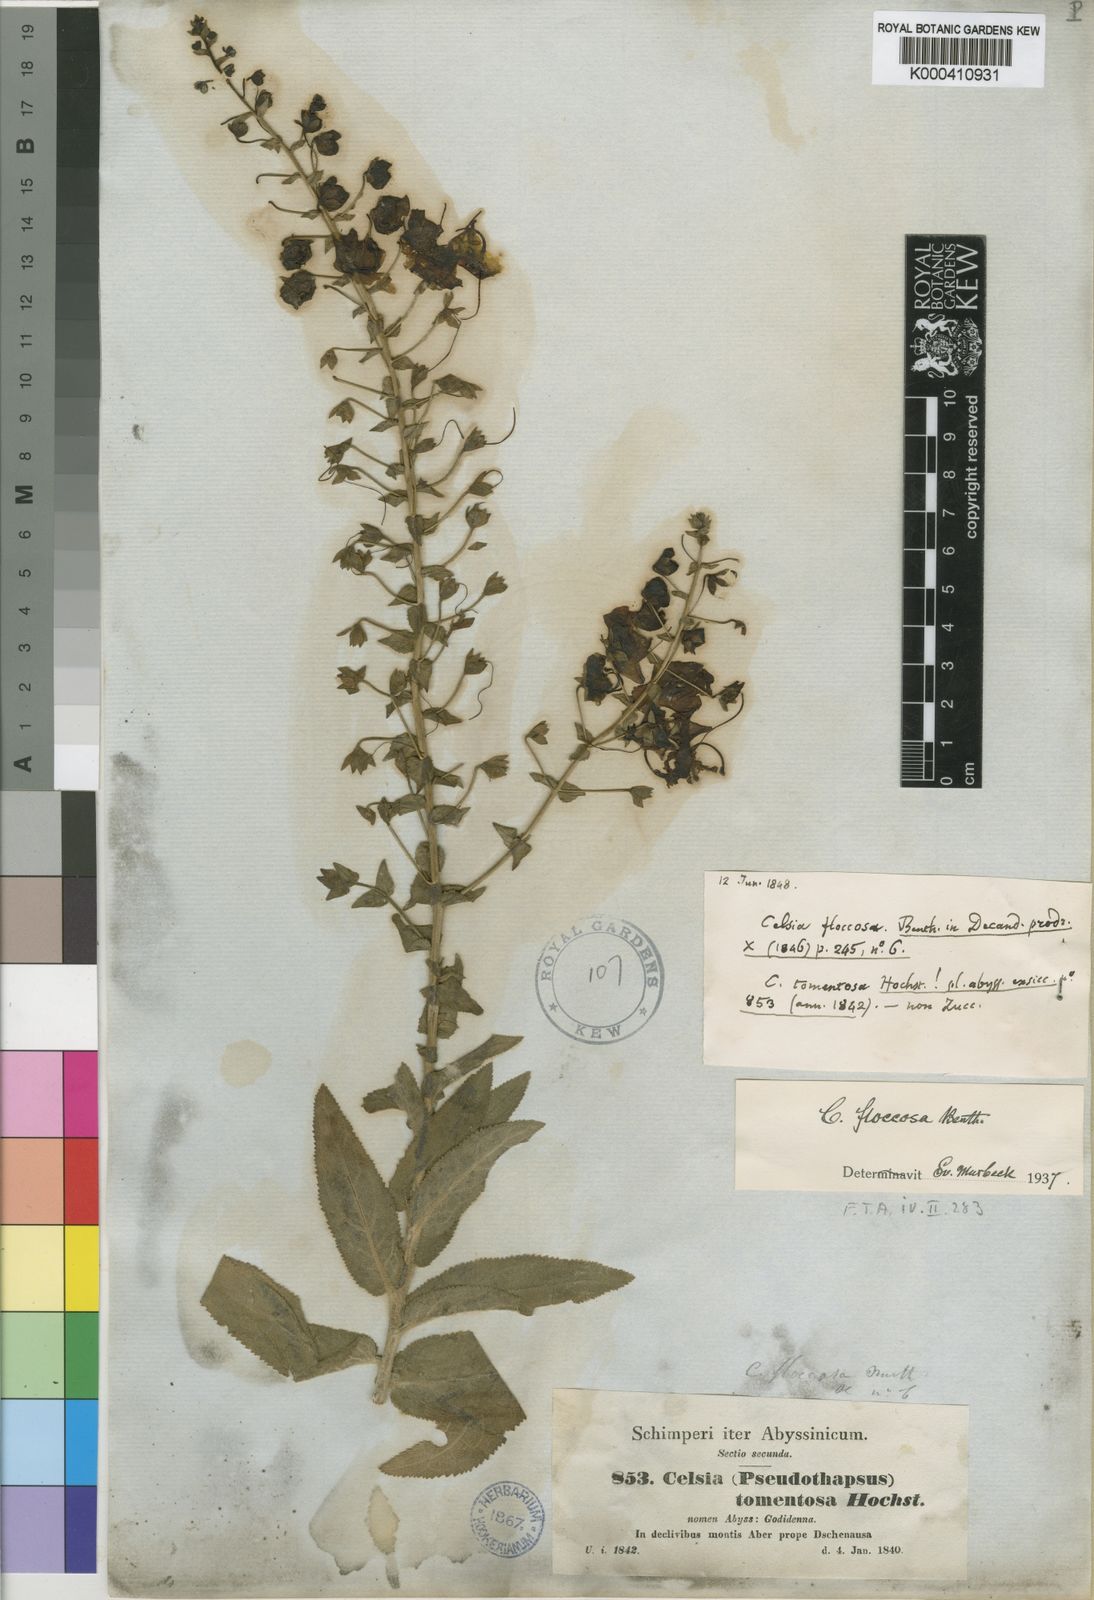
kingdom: Plantae
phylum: Tracheophyta
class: Magnoliopsida
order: Lamiales
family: Scrophulariaceae
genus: Verbascum
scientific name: Verbascum benthamianum
